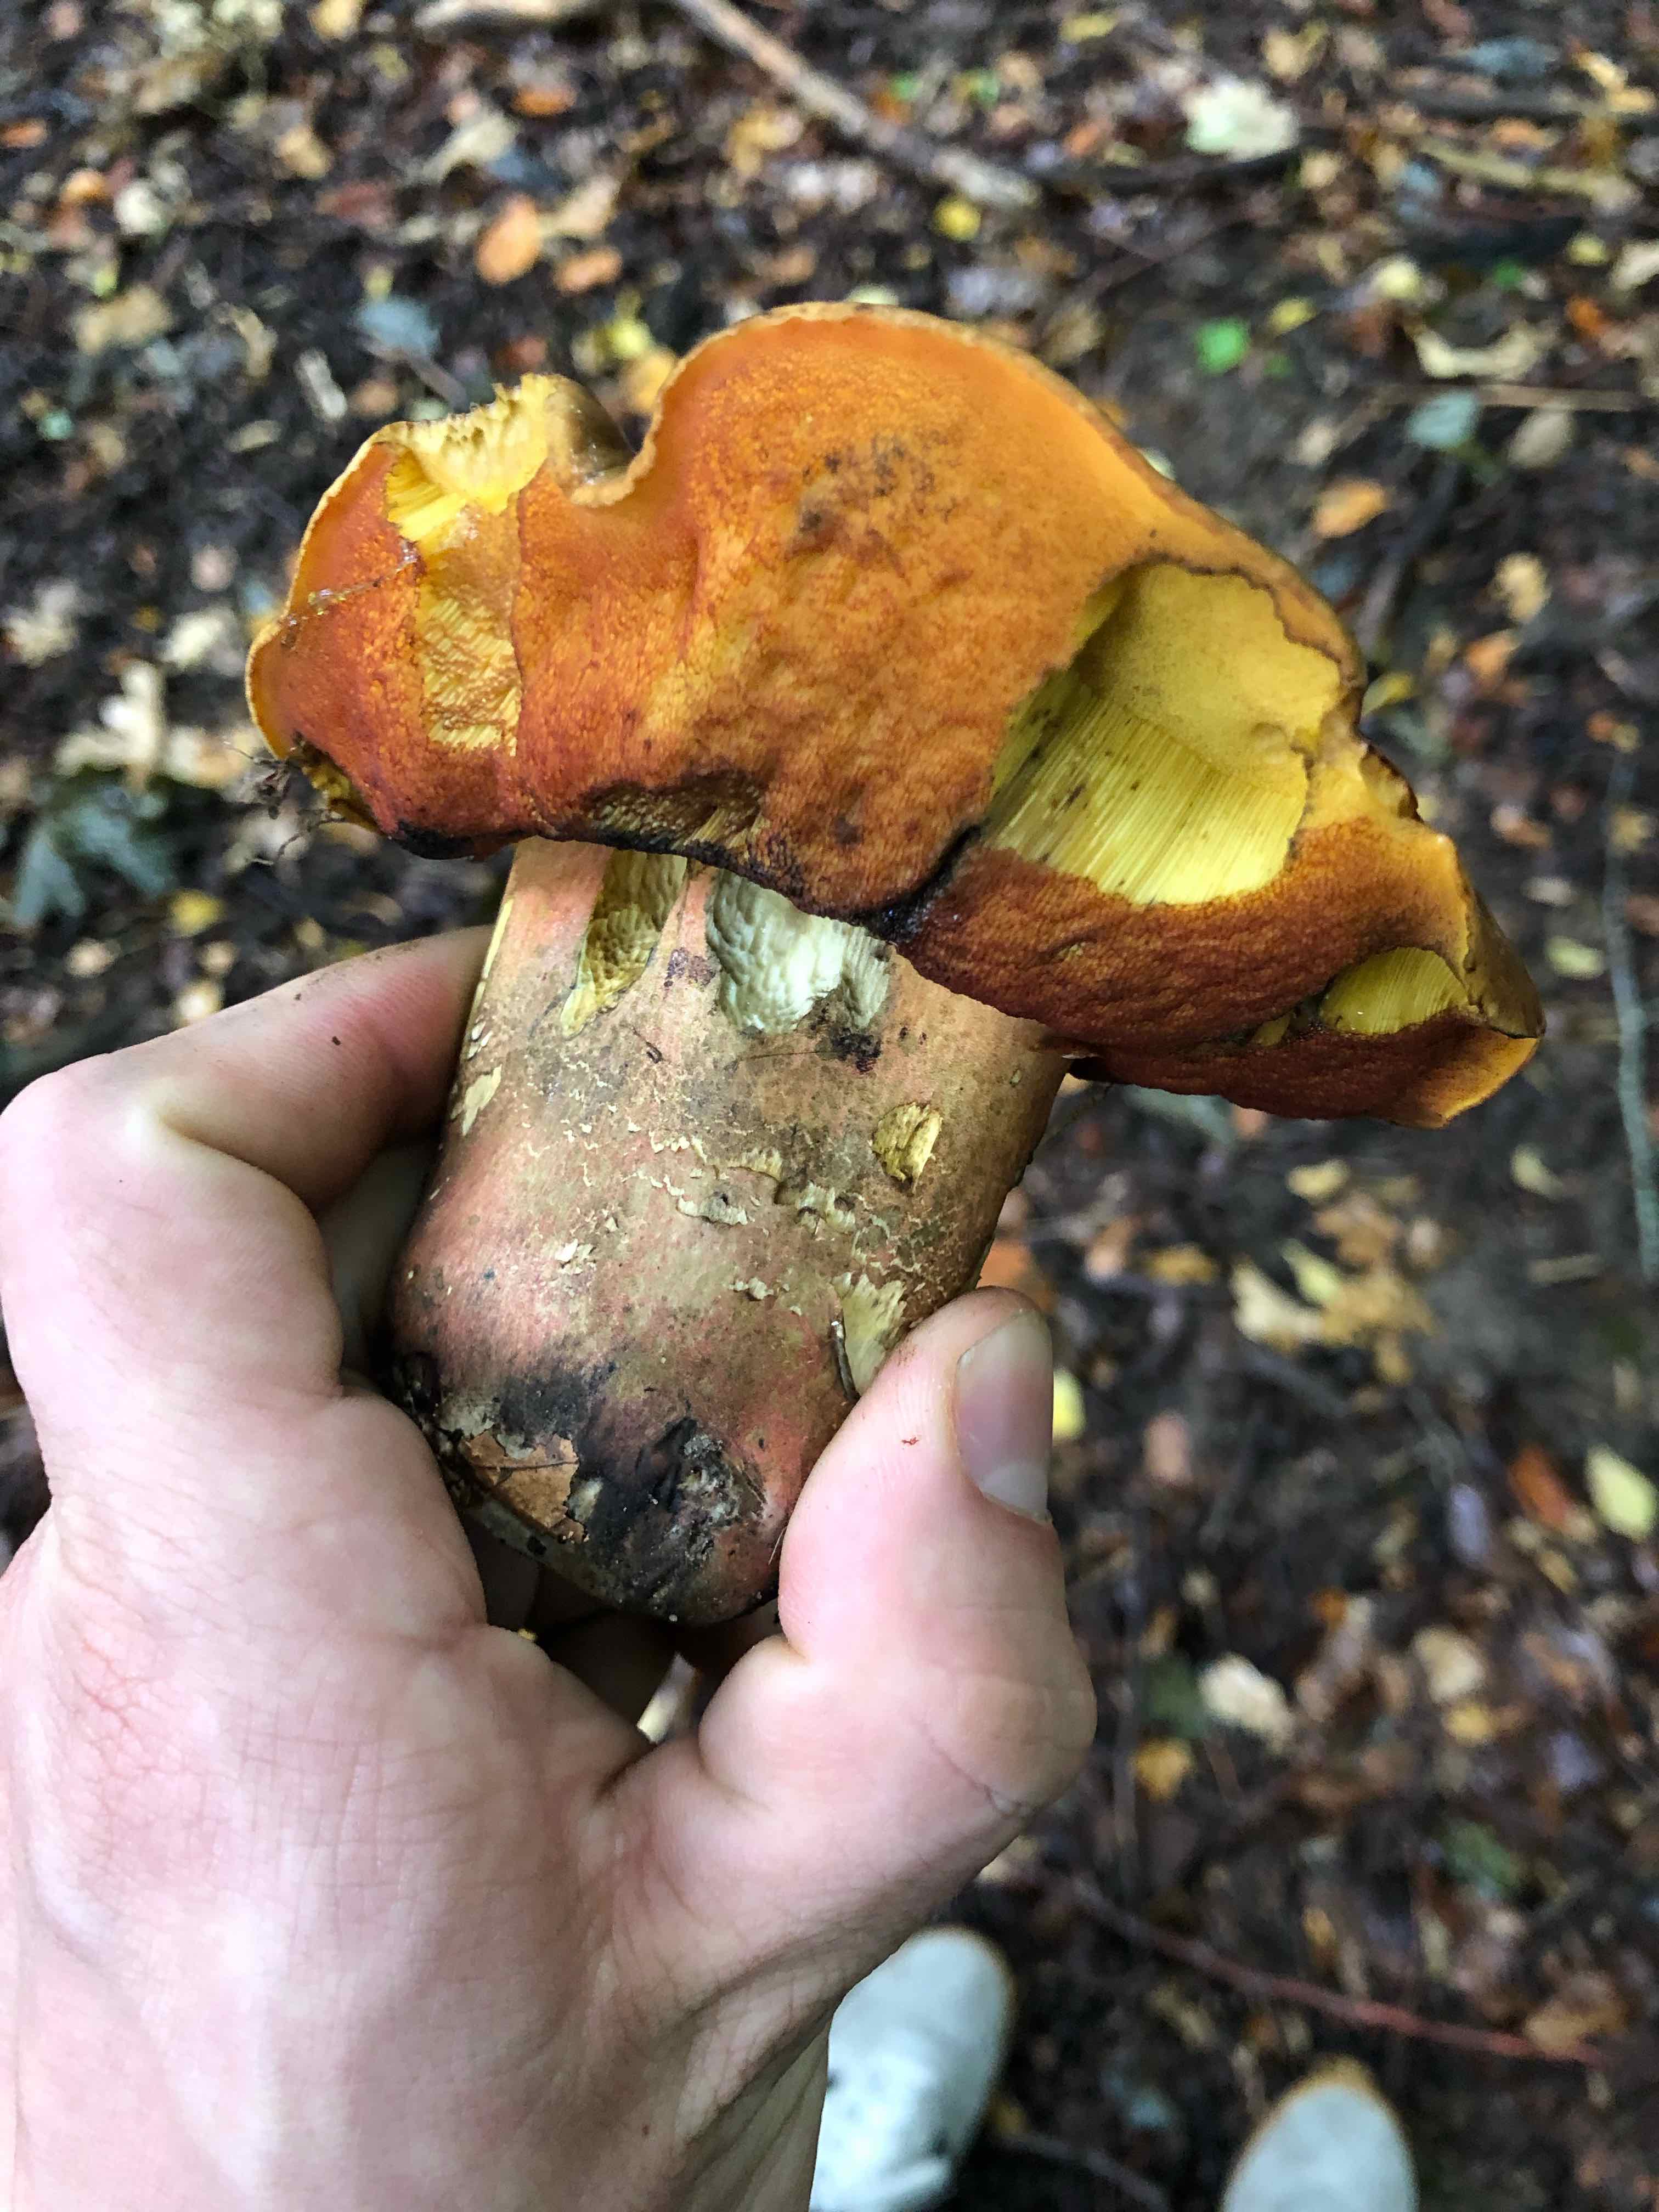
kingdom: Fungi
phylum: Basidiomycota
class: Agaricomycetes
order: Boletales
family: Boletaceae
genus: Neoboletus
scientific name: Neoboletus erythropus
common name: punktstokket indigorørhat
